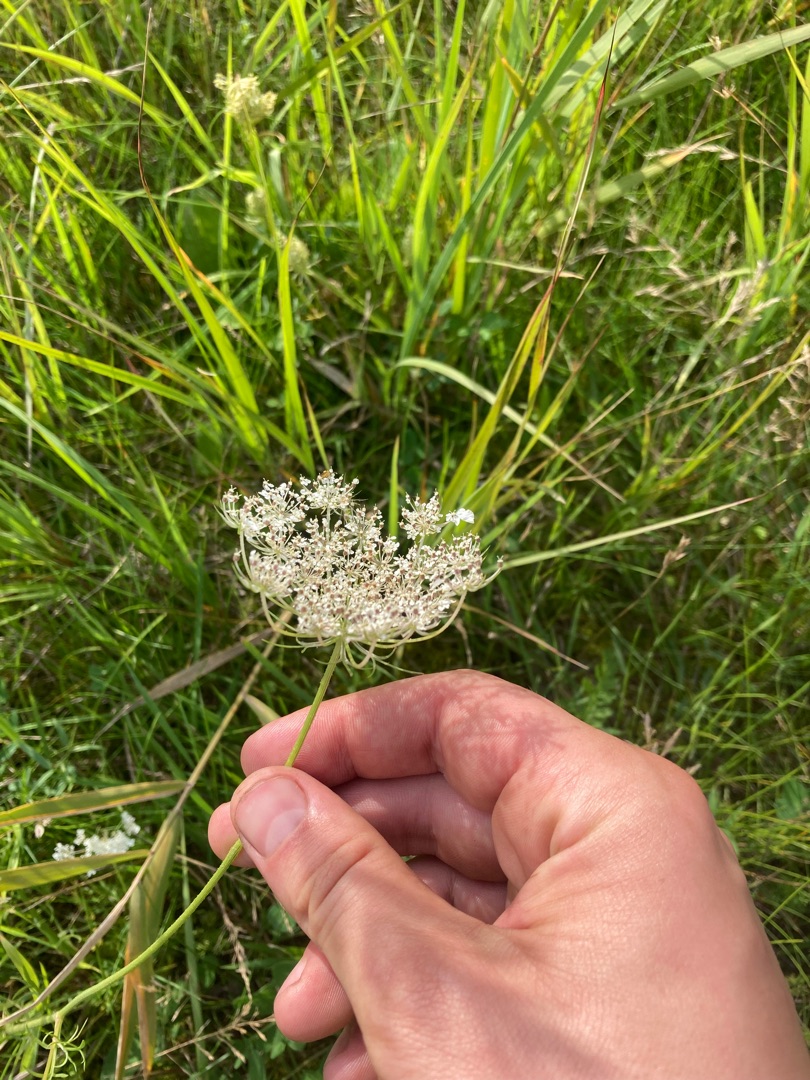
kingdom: Plantae
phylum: Tracheophyta
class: Magnoliopsida
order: Apiales
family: Apiaceae
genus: Daucus
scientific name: Daucus carota
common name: Gulerod
